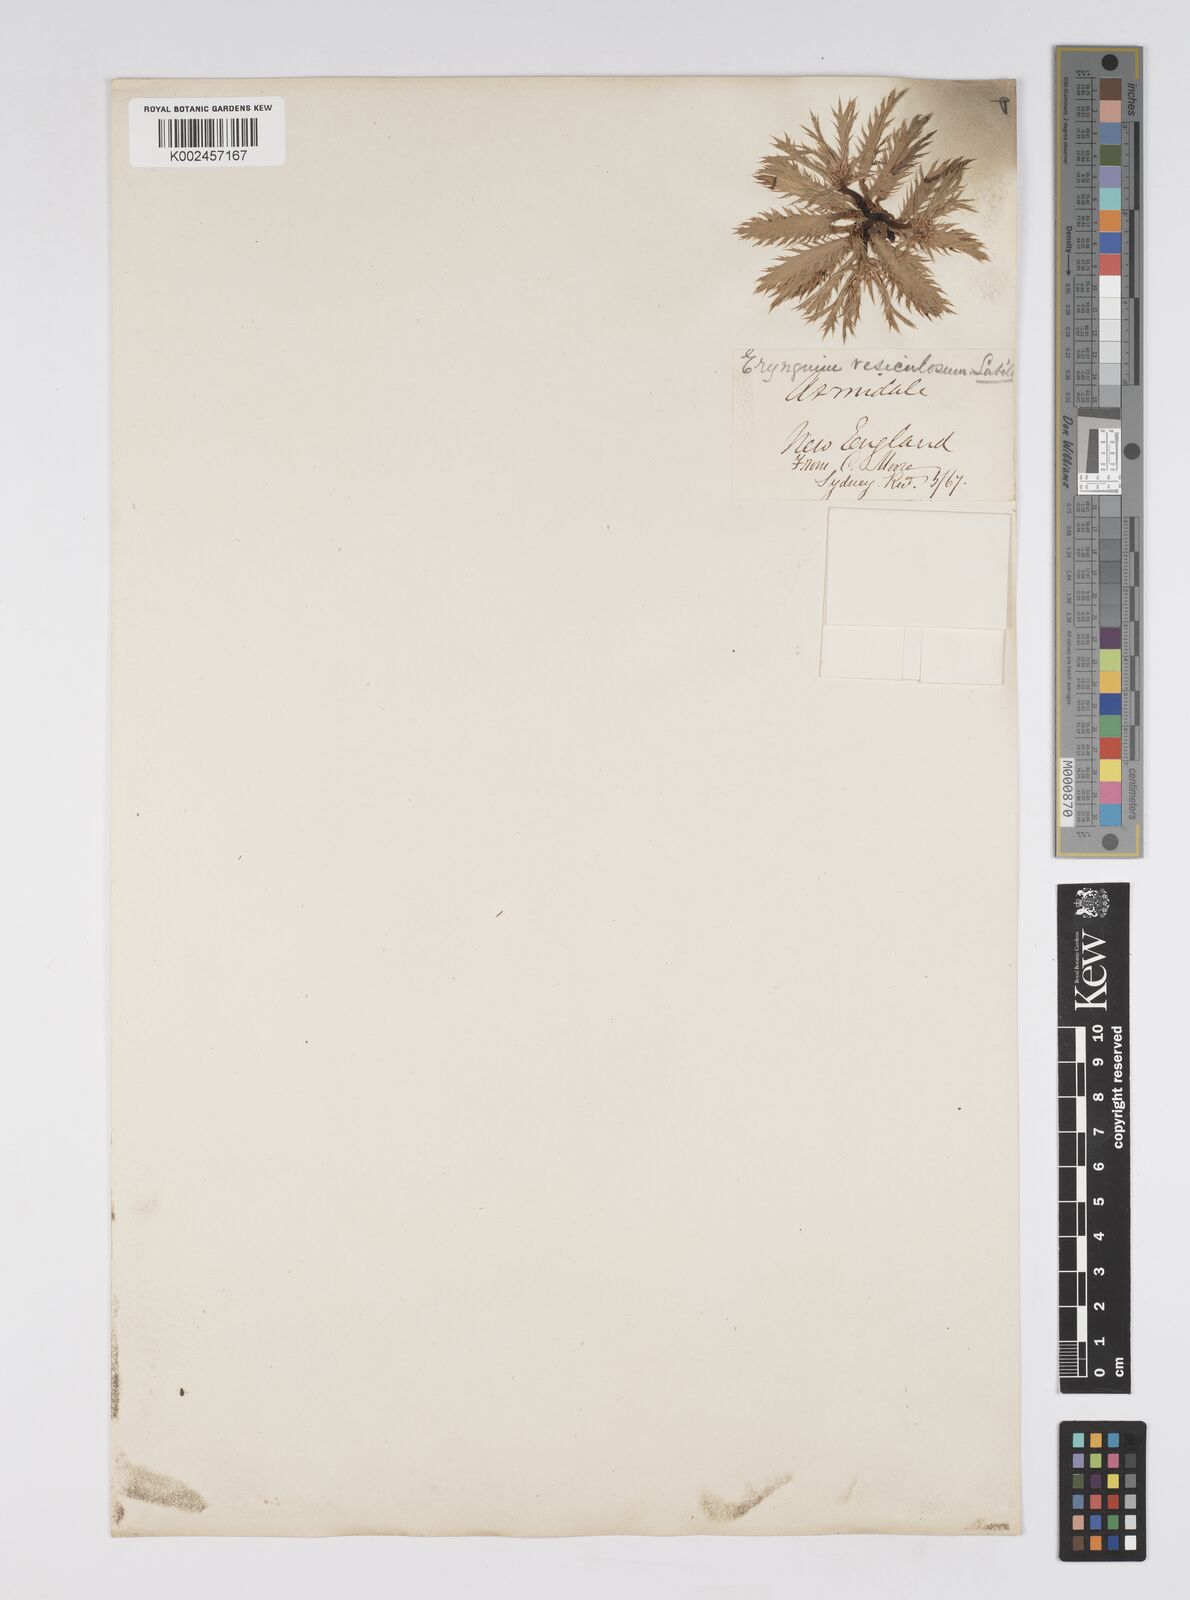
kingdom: Plantae
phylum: Tracheophyta
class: Magnoliopsida
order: Apiales
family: Apiaceae
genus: Eryngium
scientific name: Eryngium vesiculosum
